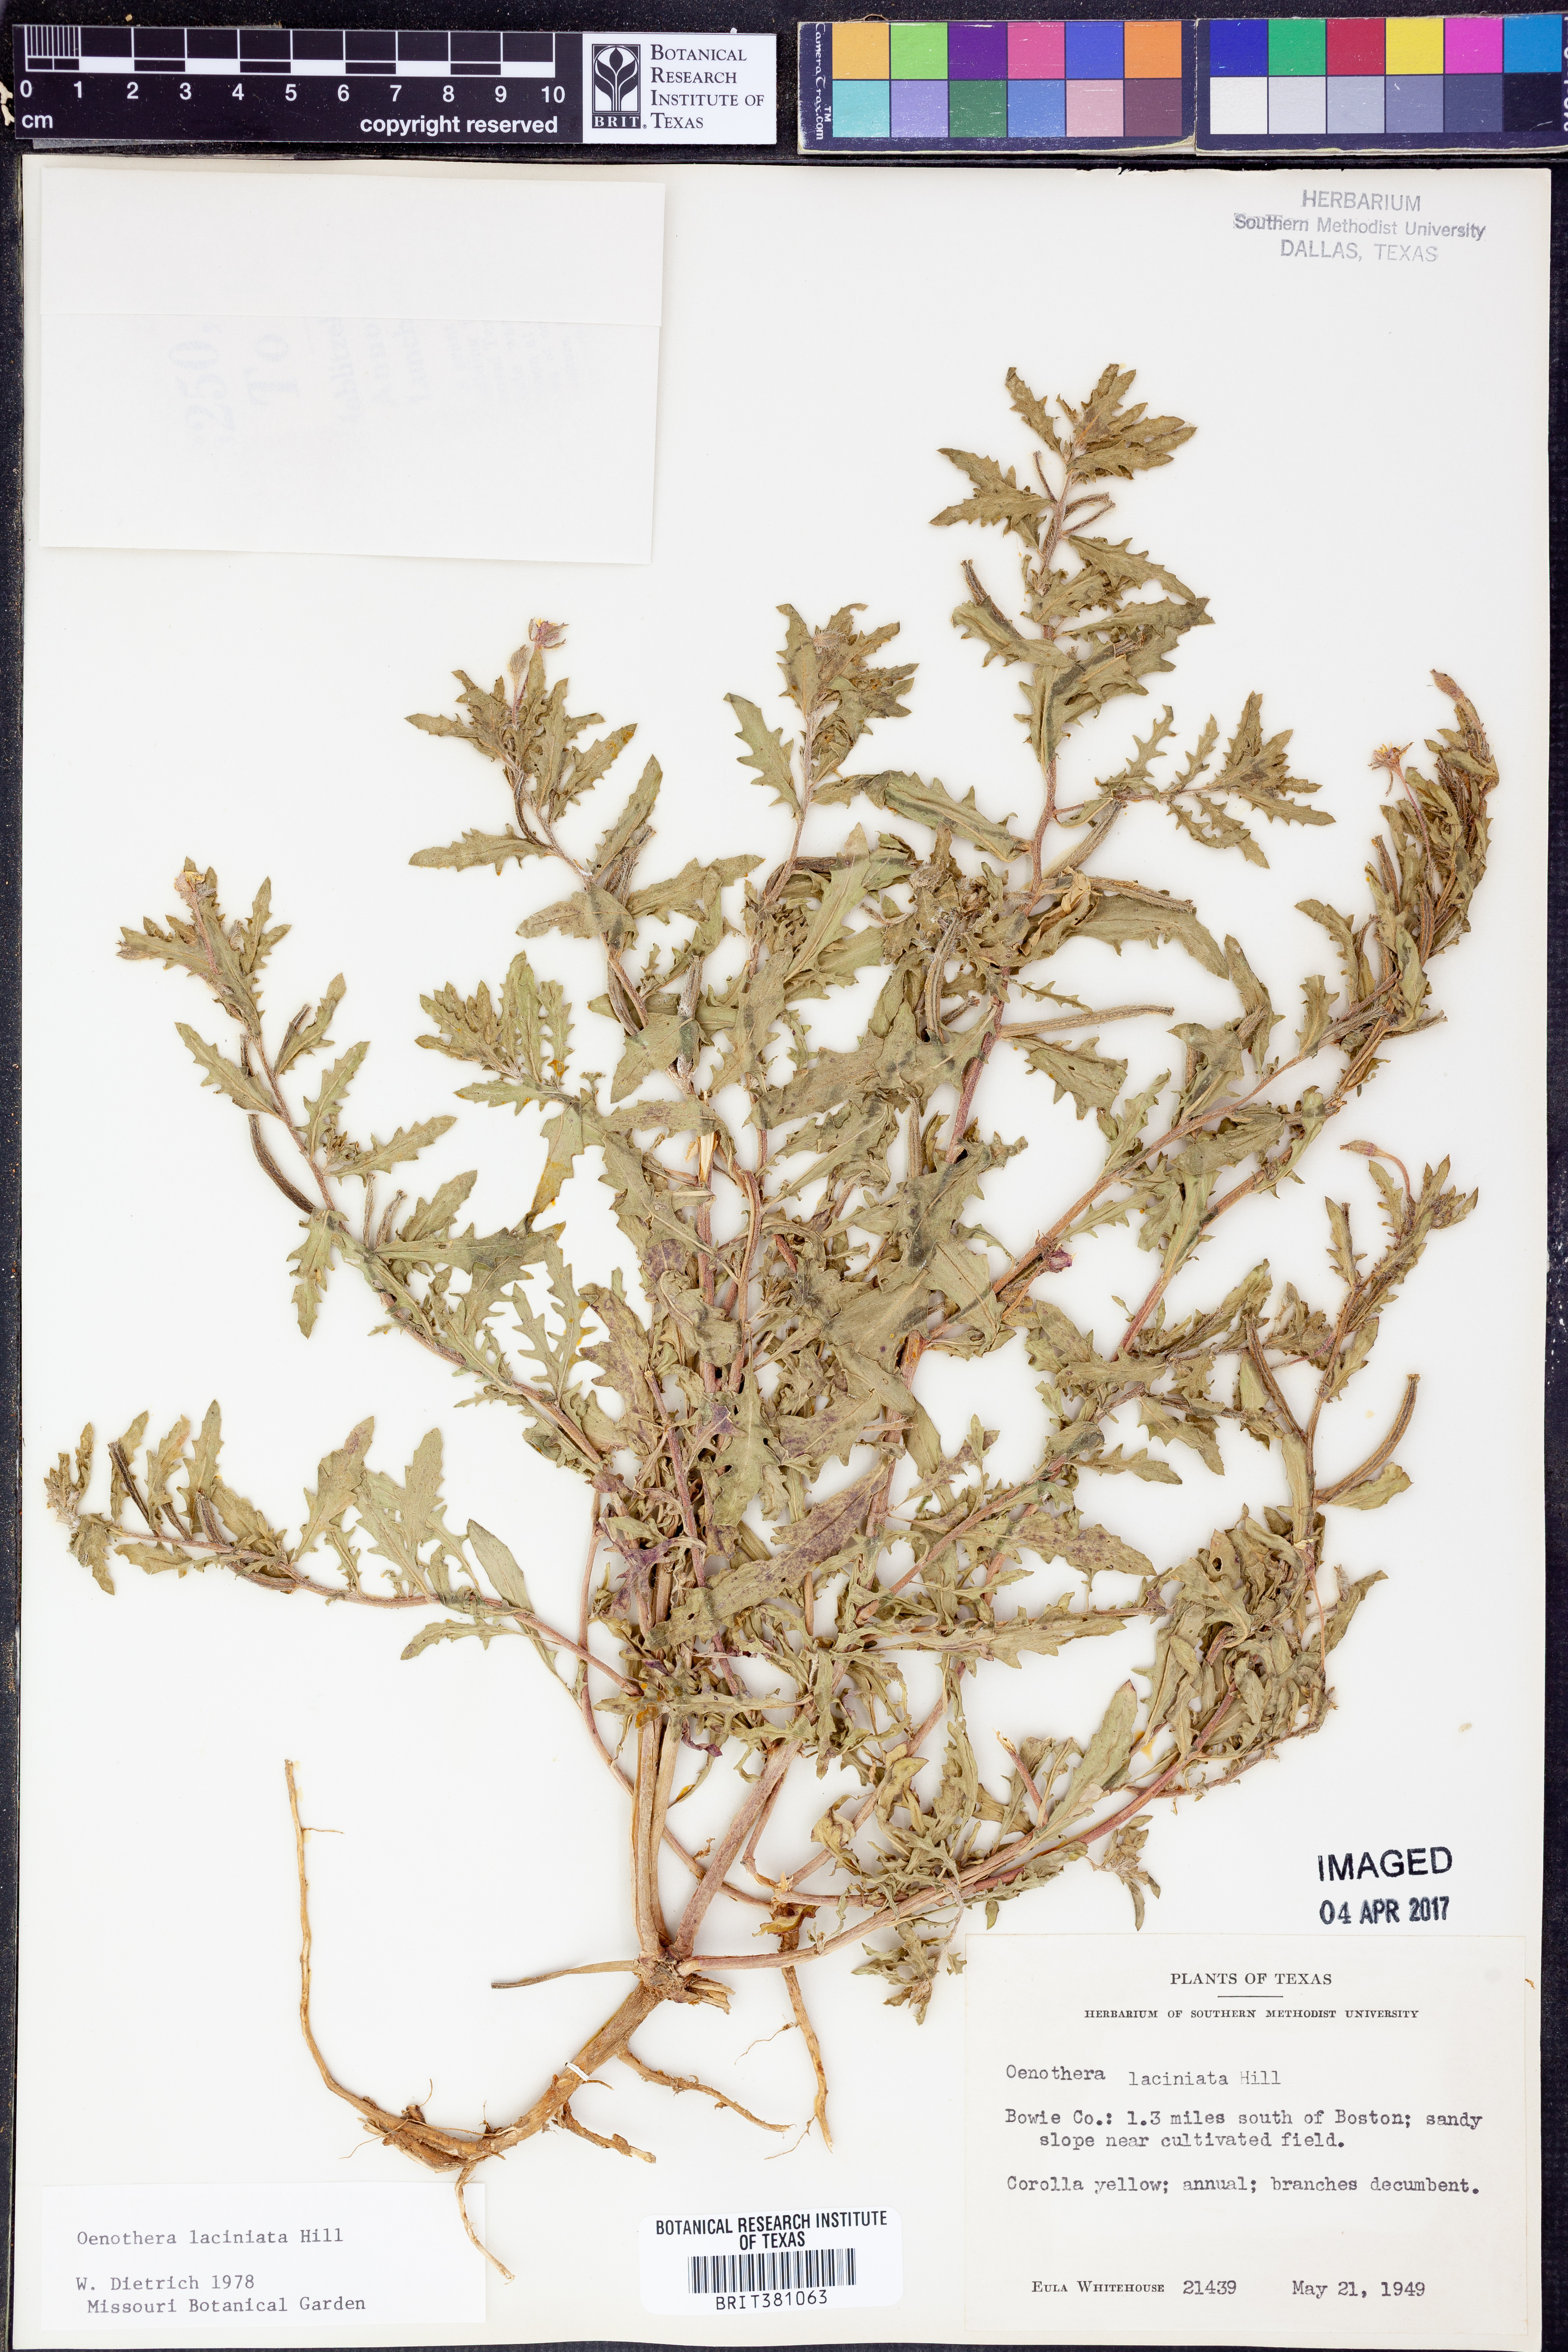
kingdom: Plantae
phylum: Tracheophyta
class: Magnoliopsida
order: Myrtales
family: Onagraceae
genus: Oenothera
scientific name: Oenothera laciniata
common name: Cut-leaved evening-primrose
